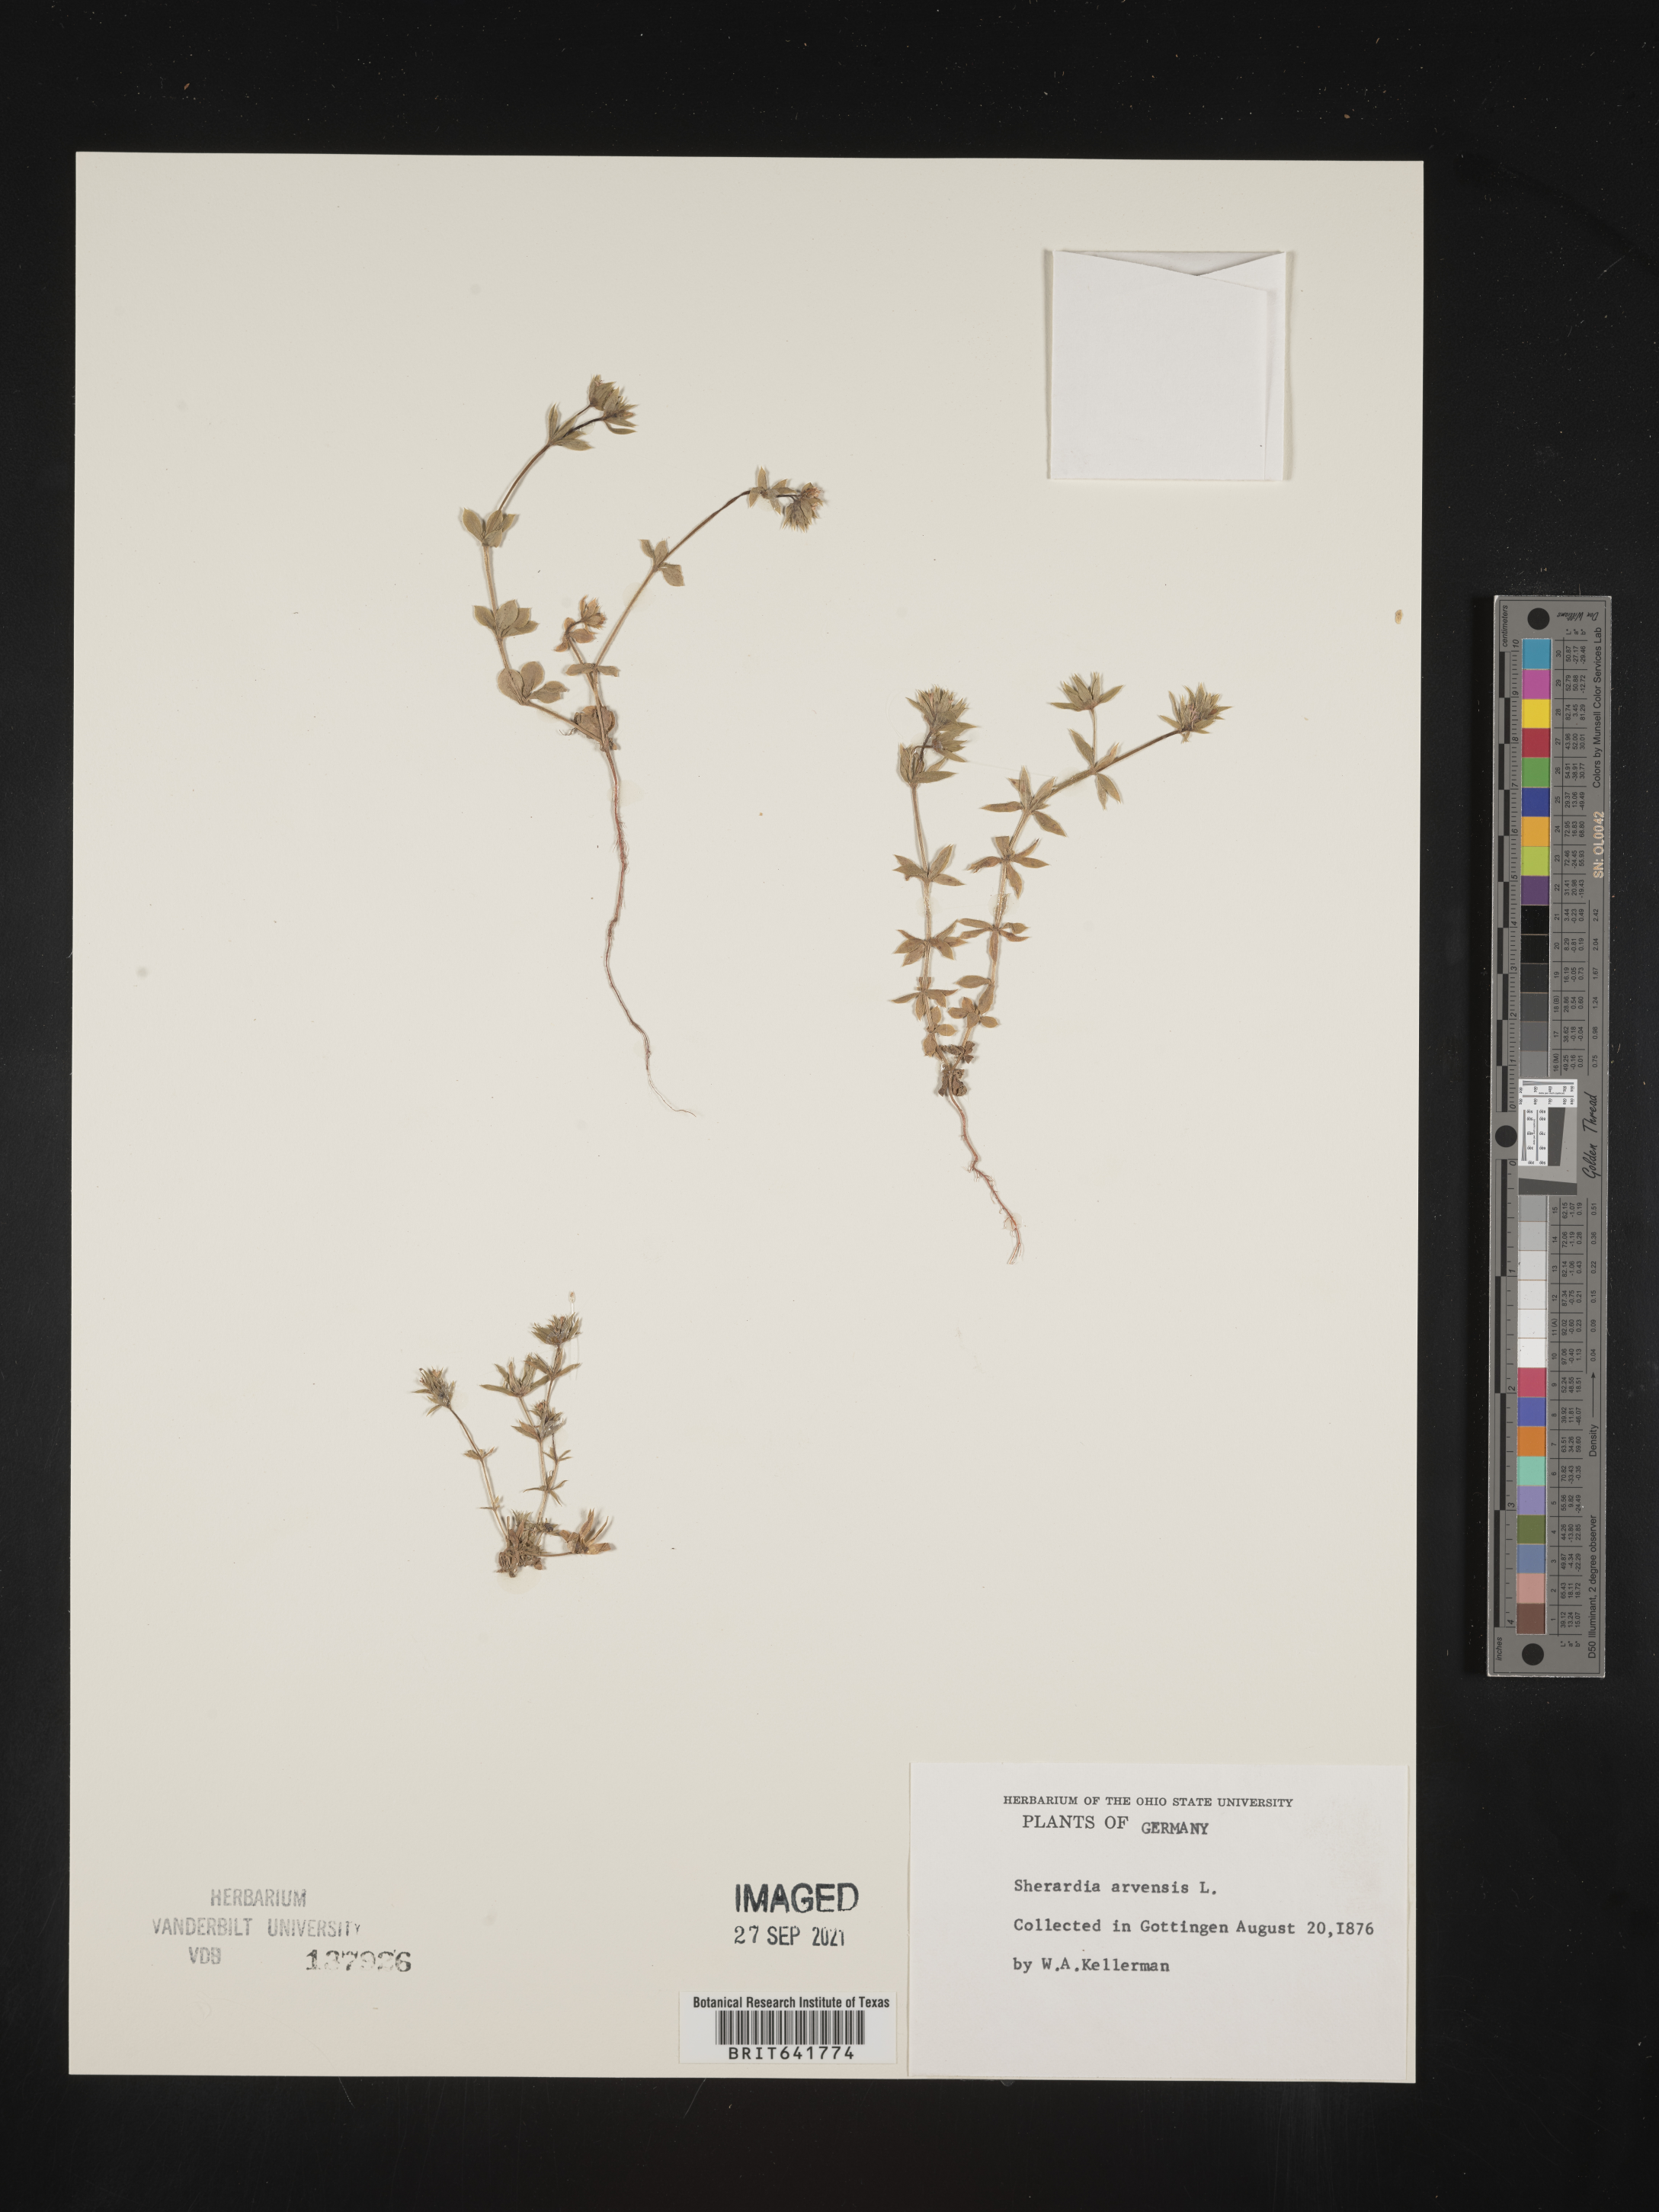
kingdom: Plantae
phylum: Tracheophyta
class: Magnoliopsida
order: Gentianales
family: Rubiaceae
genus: Sherardia
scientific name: Sherardia
